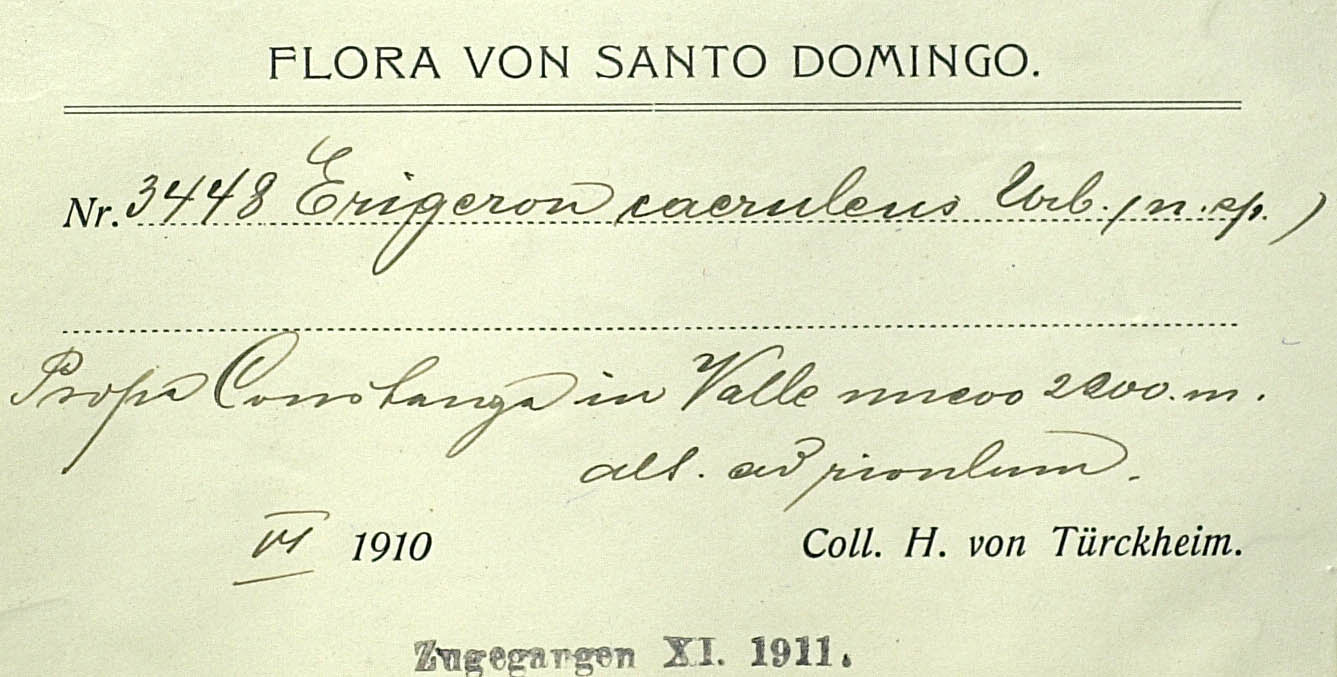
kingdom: Plantae
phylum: Tracheophyta
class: Magnoliopsida
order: Asterales
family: Asteraceae
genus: Erigeron
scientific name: Erigeron caeruleus
